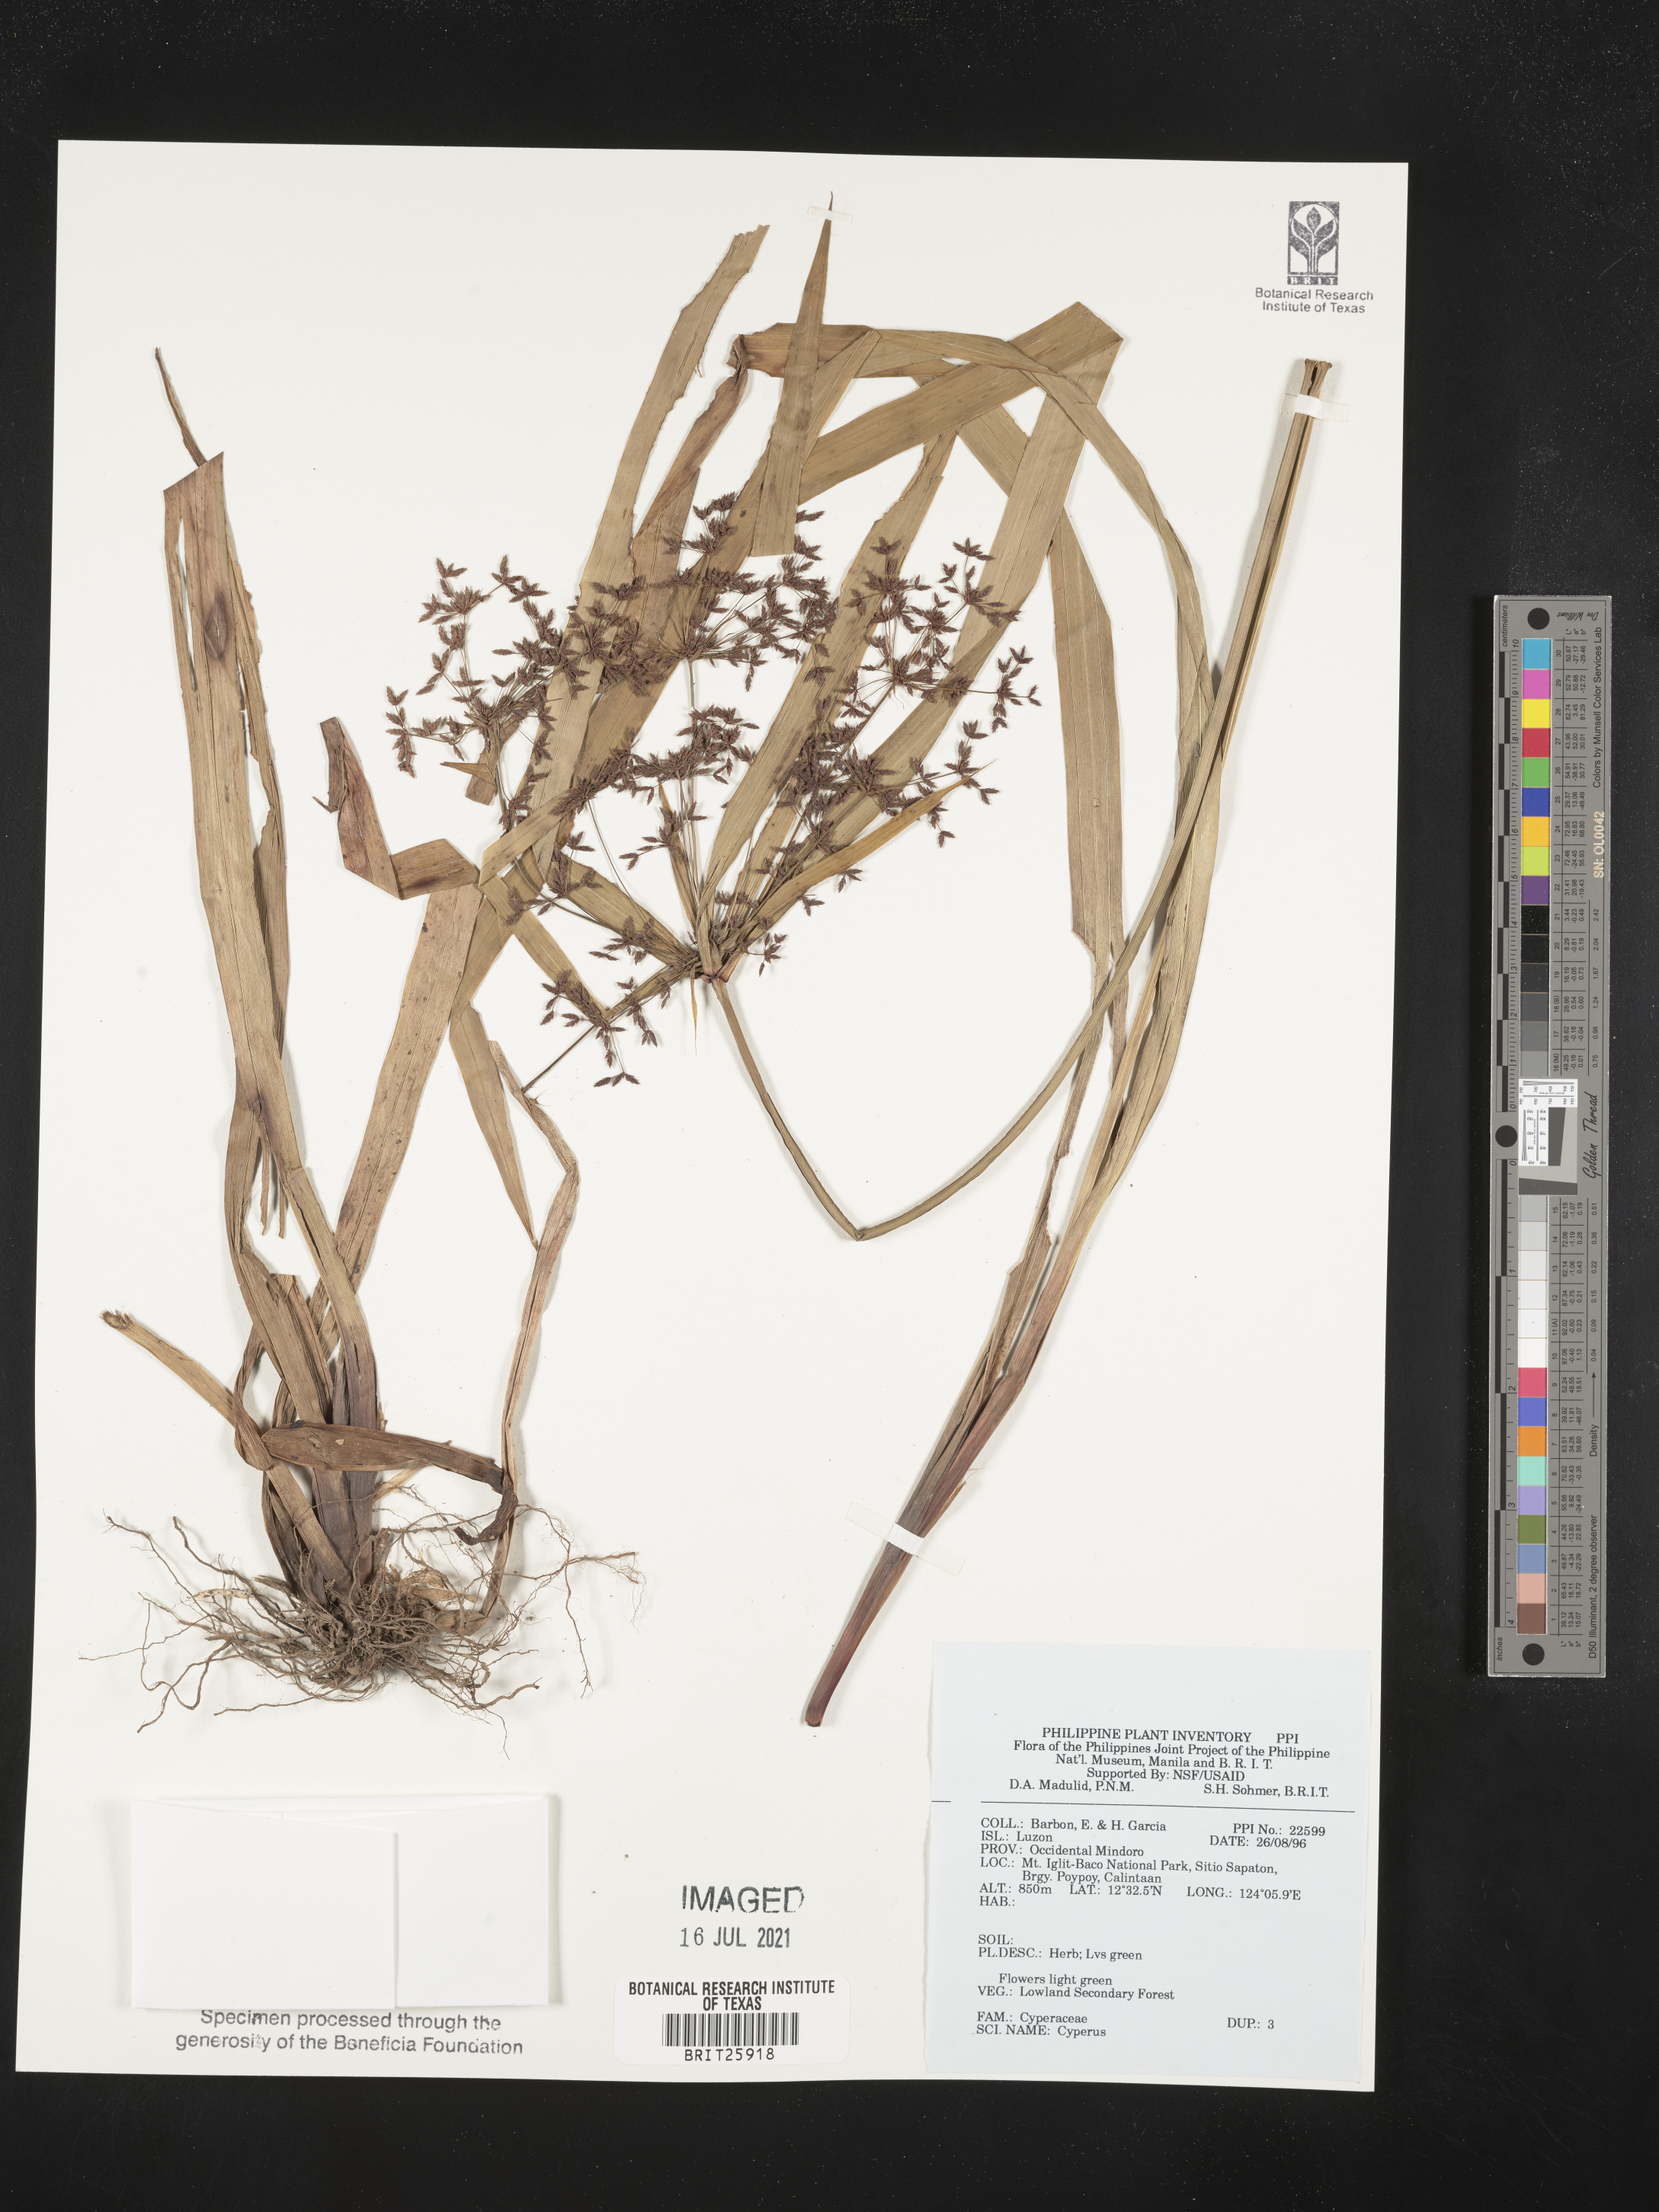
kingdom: Plantae
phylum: Tracheophyta
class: Liliopsida
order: Poales
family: Cyperaceae
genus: Cyperus
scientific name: Cyperus
